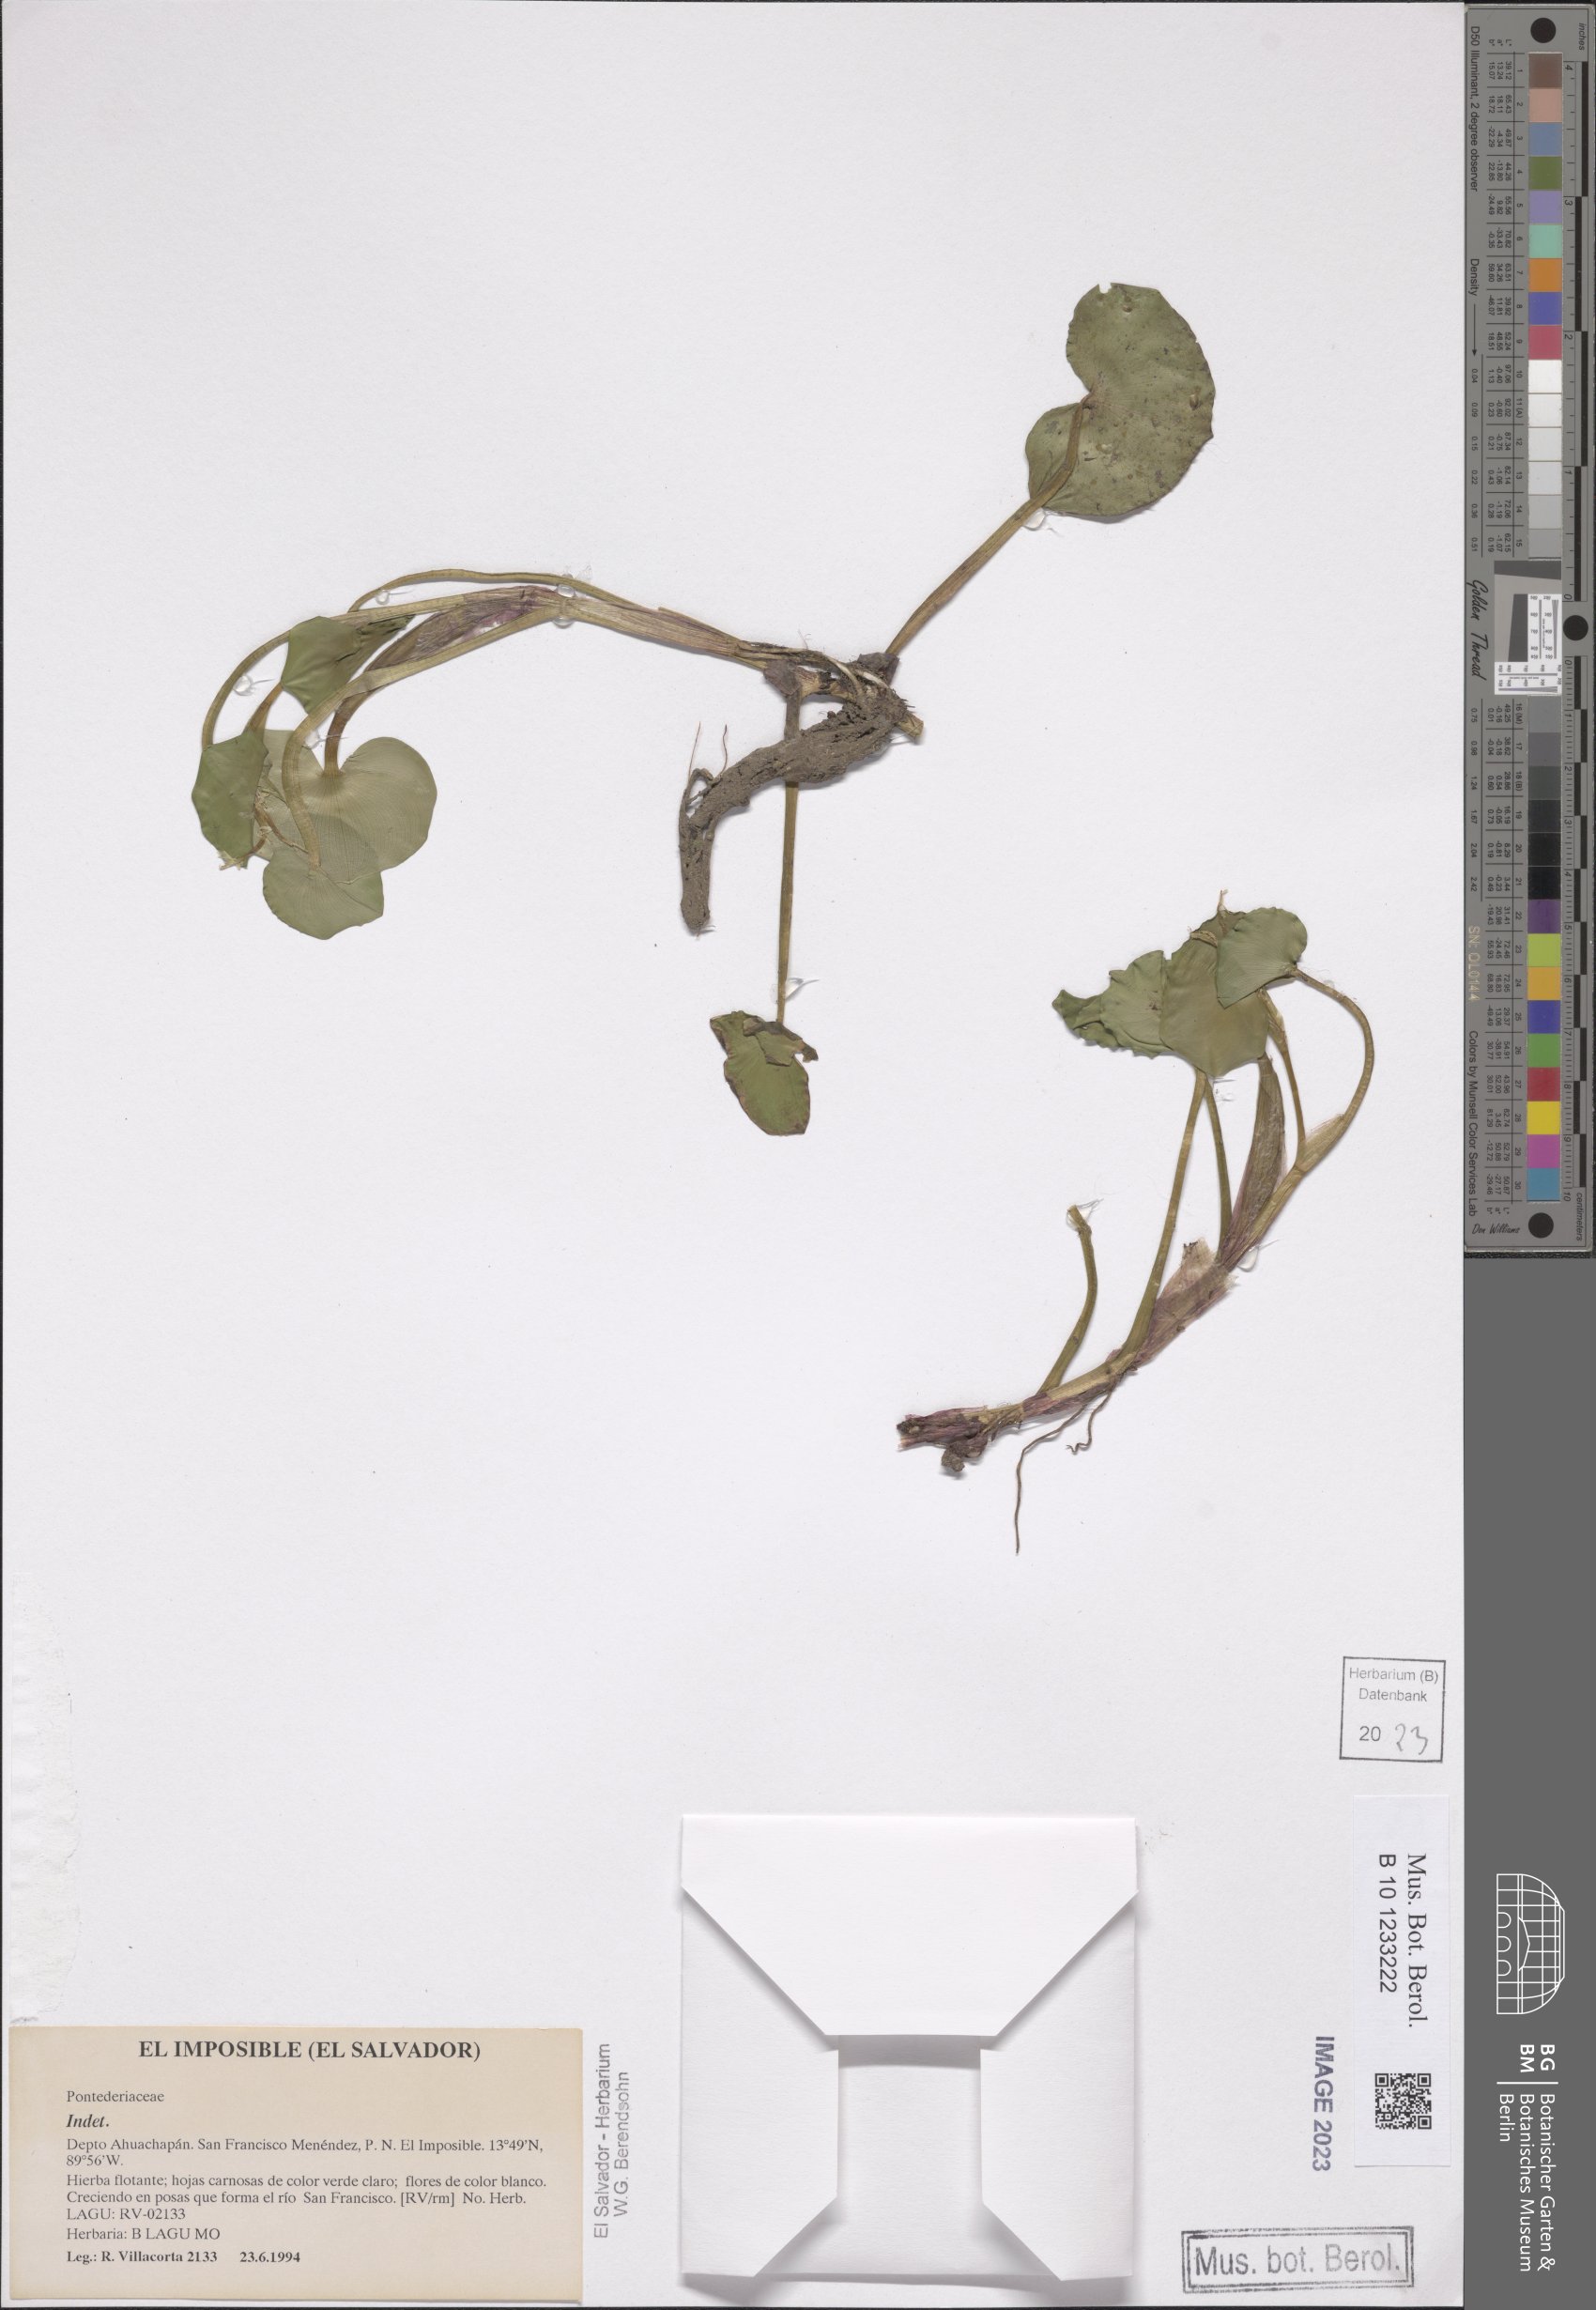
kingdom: Plantae
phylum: Tracheophyta
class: Liliopsida
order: Commelinales
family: Pontederiaceae
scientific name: Pontederiaceae
